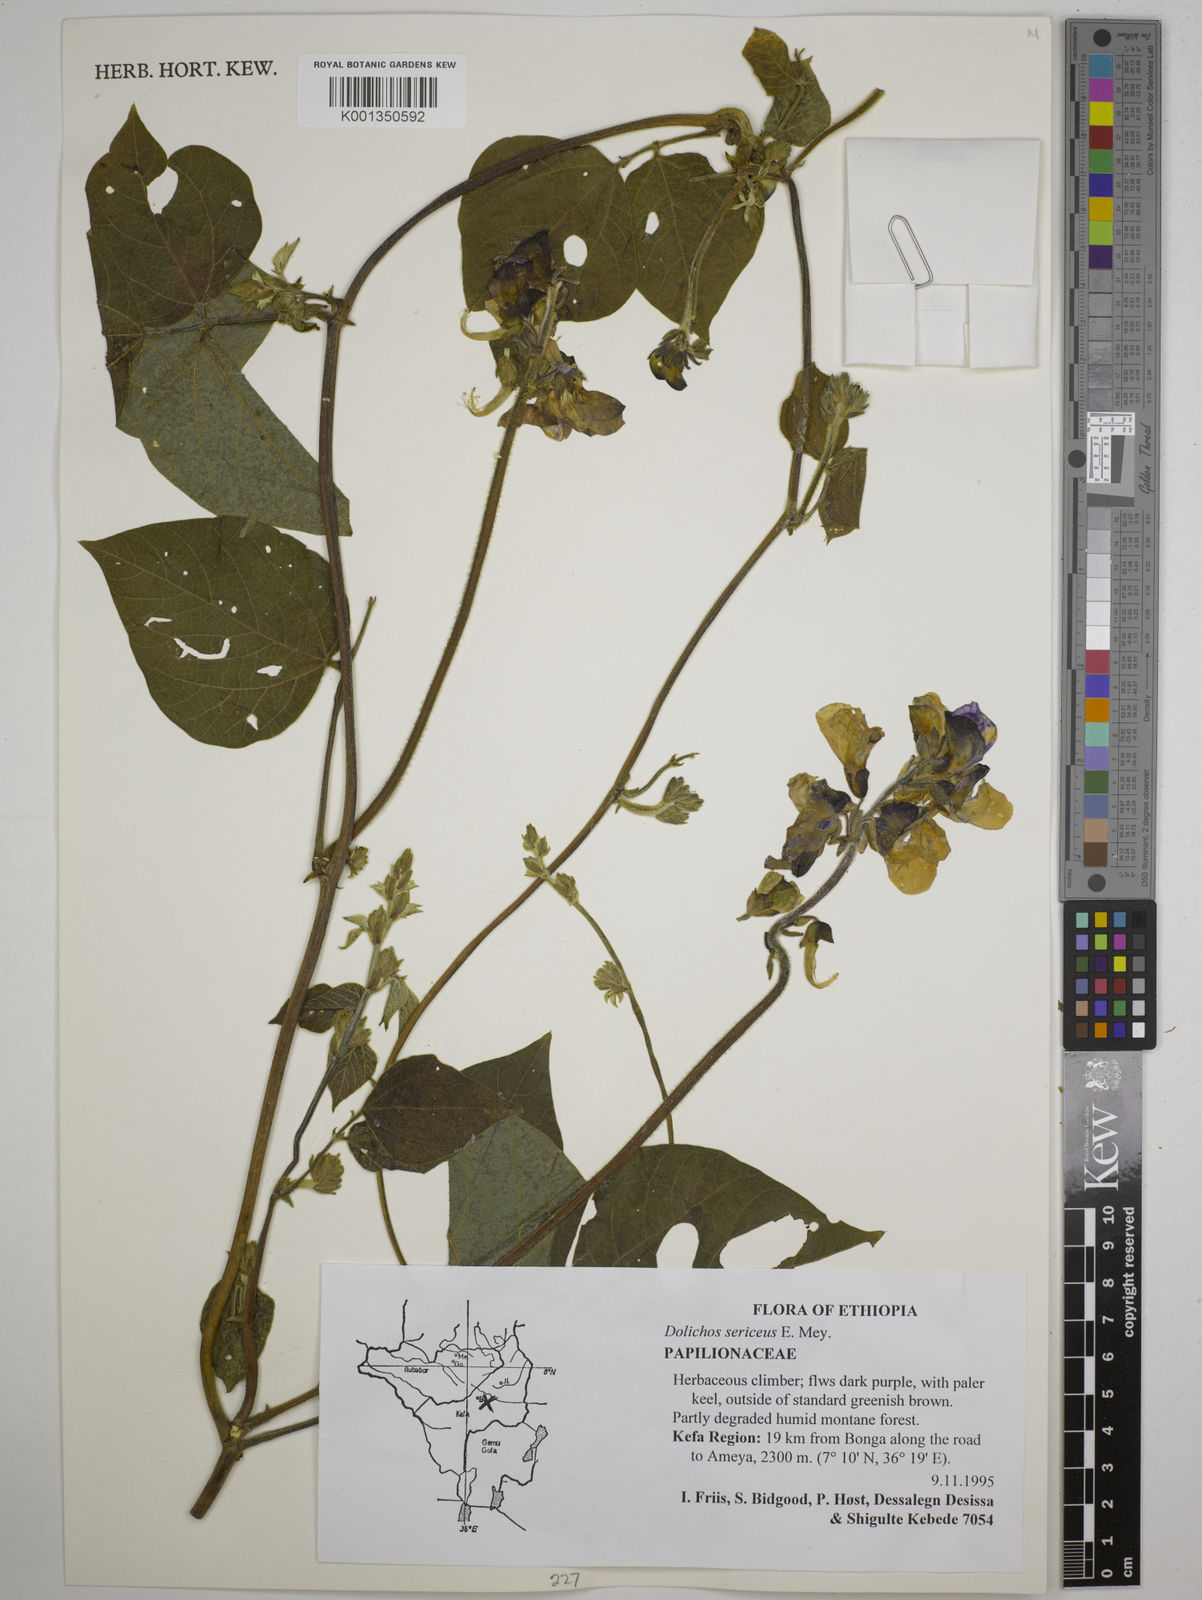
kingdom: Plantae
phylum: Tracheophyta
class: Magnoliopsida
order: Fabales
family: Fabaceae
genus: Dolichos
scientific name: Dolichos sericeus
